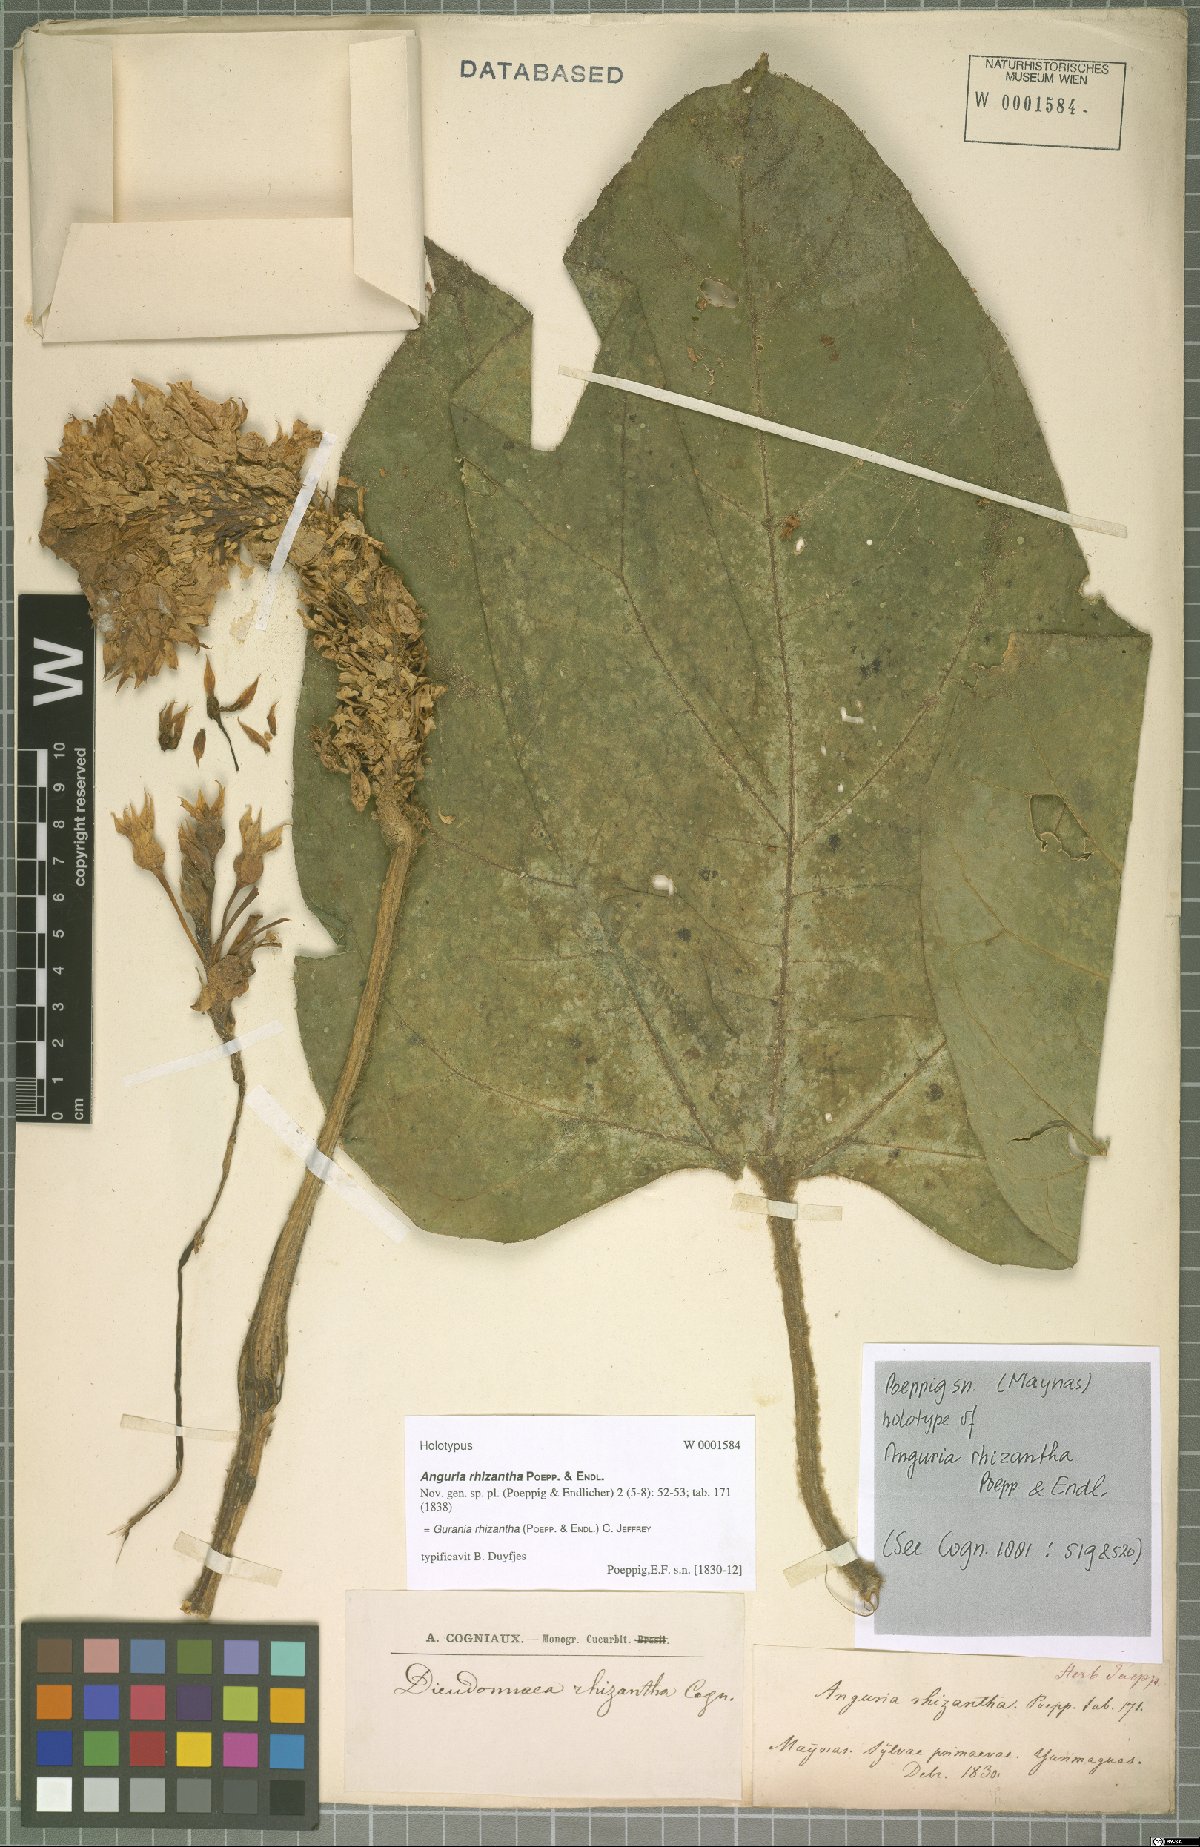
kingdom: Plantae
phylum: Tracheophyta
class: Magnoliopsida
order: Cucurbitales
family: Cucurbitaceae
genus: Gurania
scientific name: Gurania rhizantha
